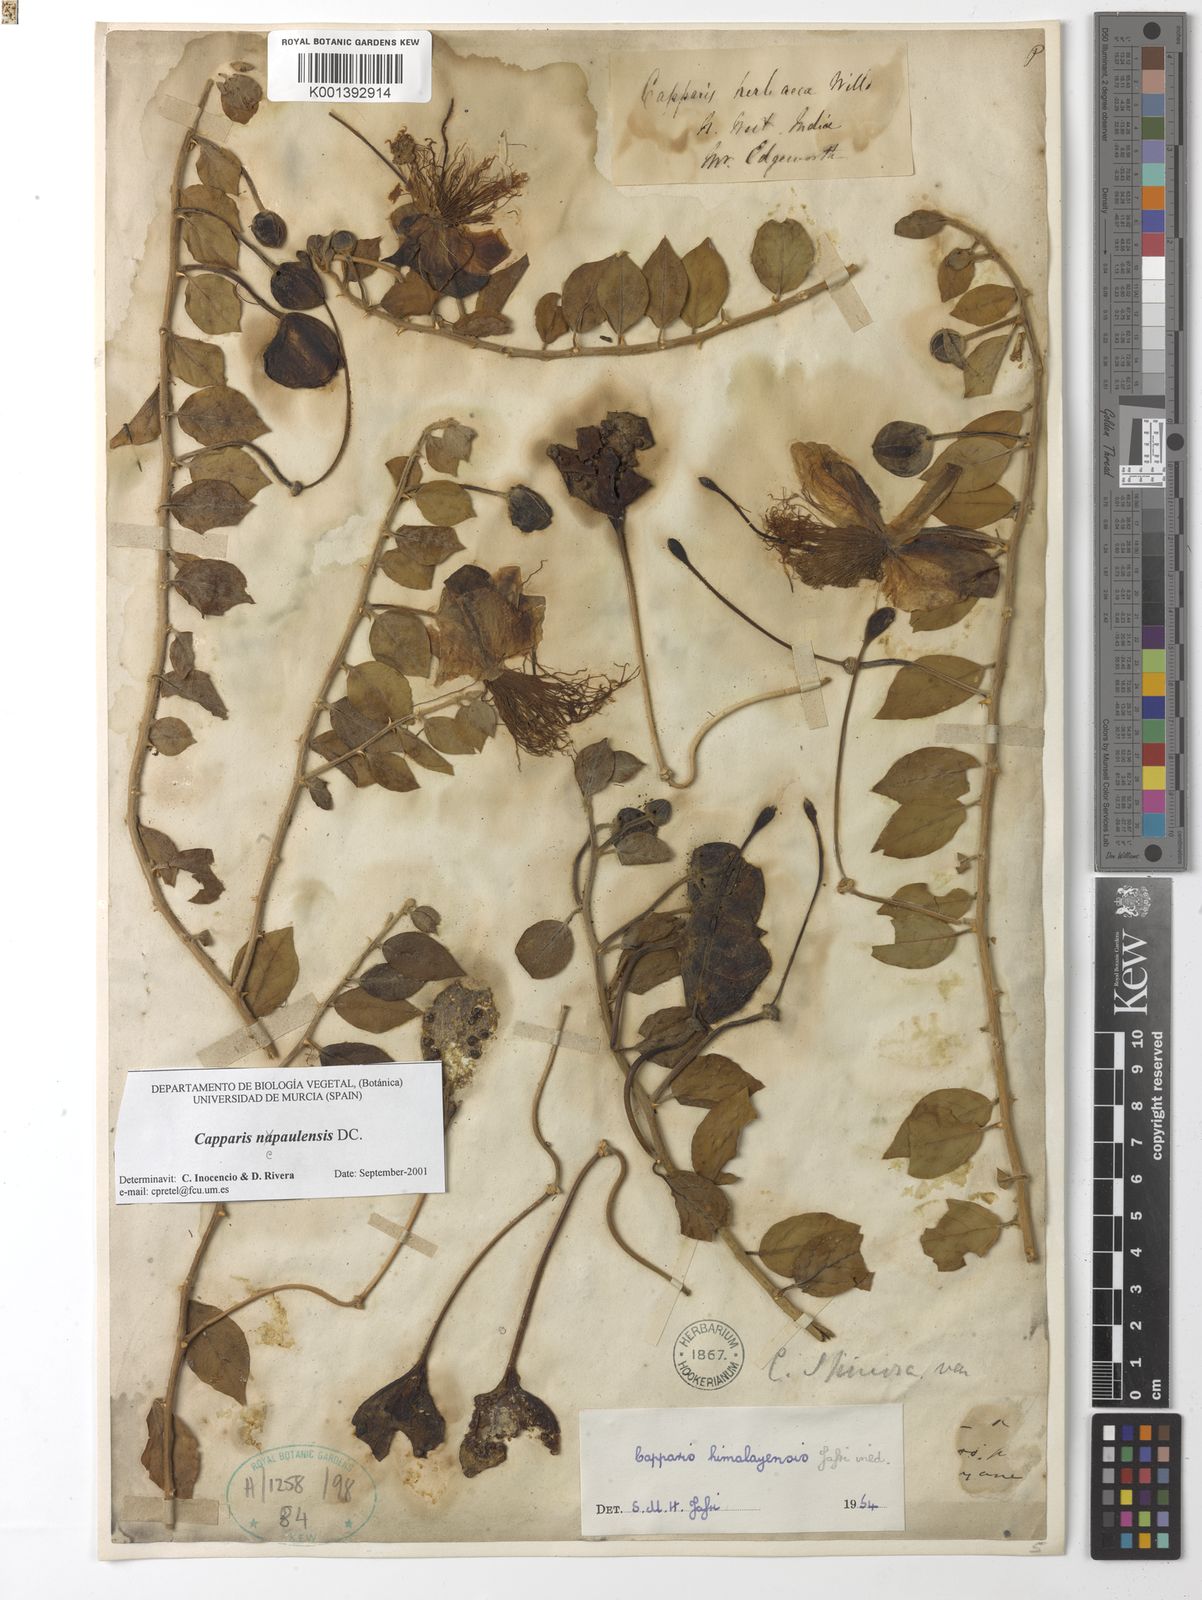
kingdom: Plantae
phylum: Tracheophyta
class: Magnoliopsida
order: Brassicales
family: Capparaceae
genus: Capparis
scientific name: Capparis spinosa
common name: Caper
